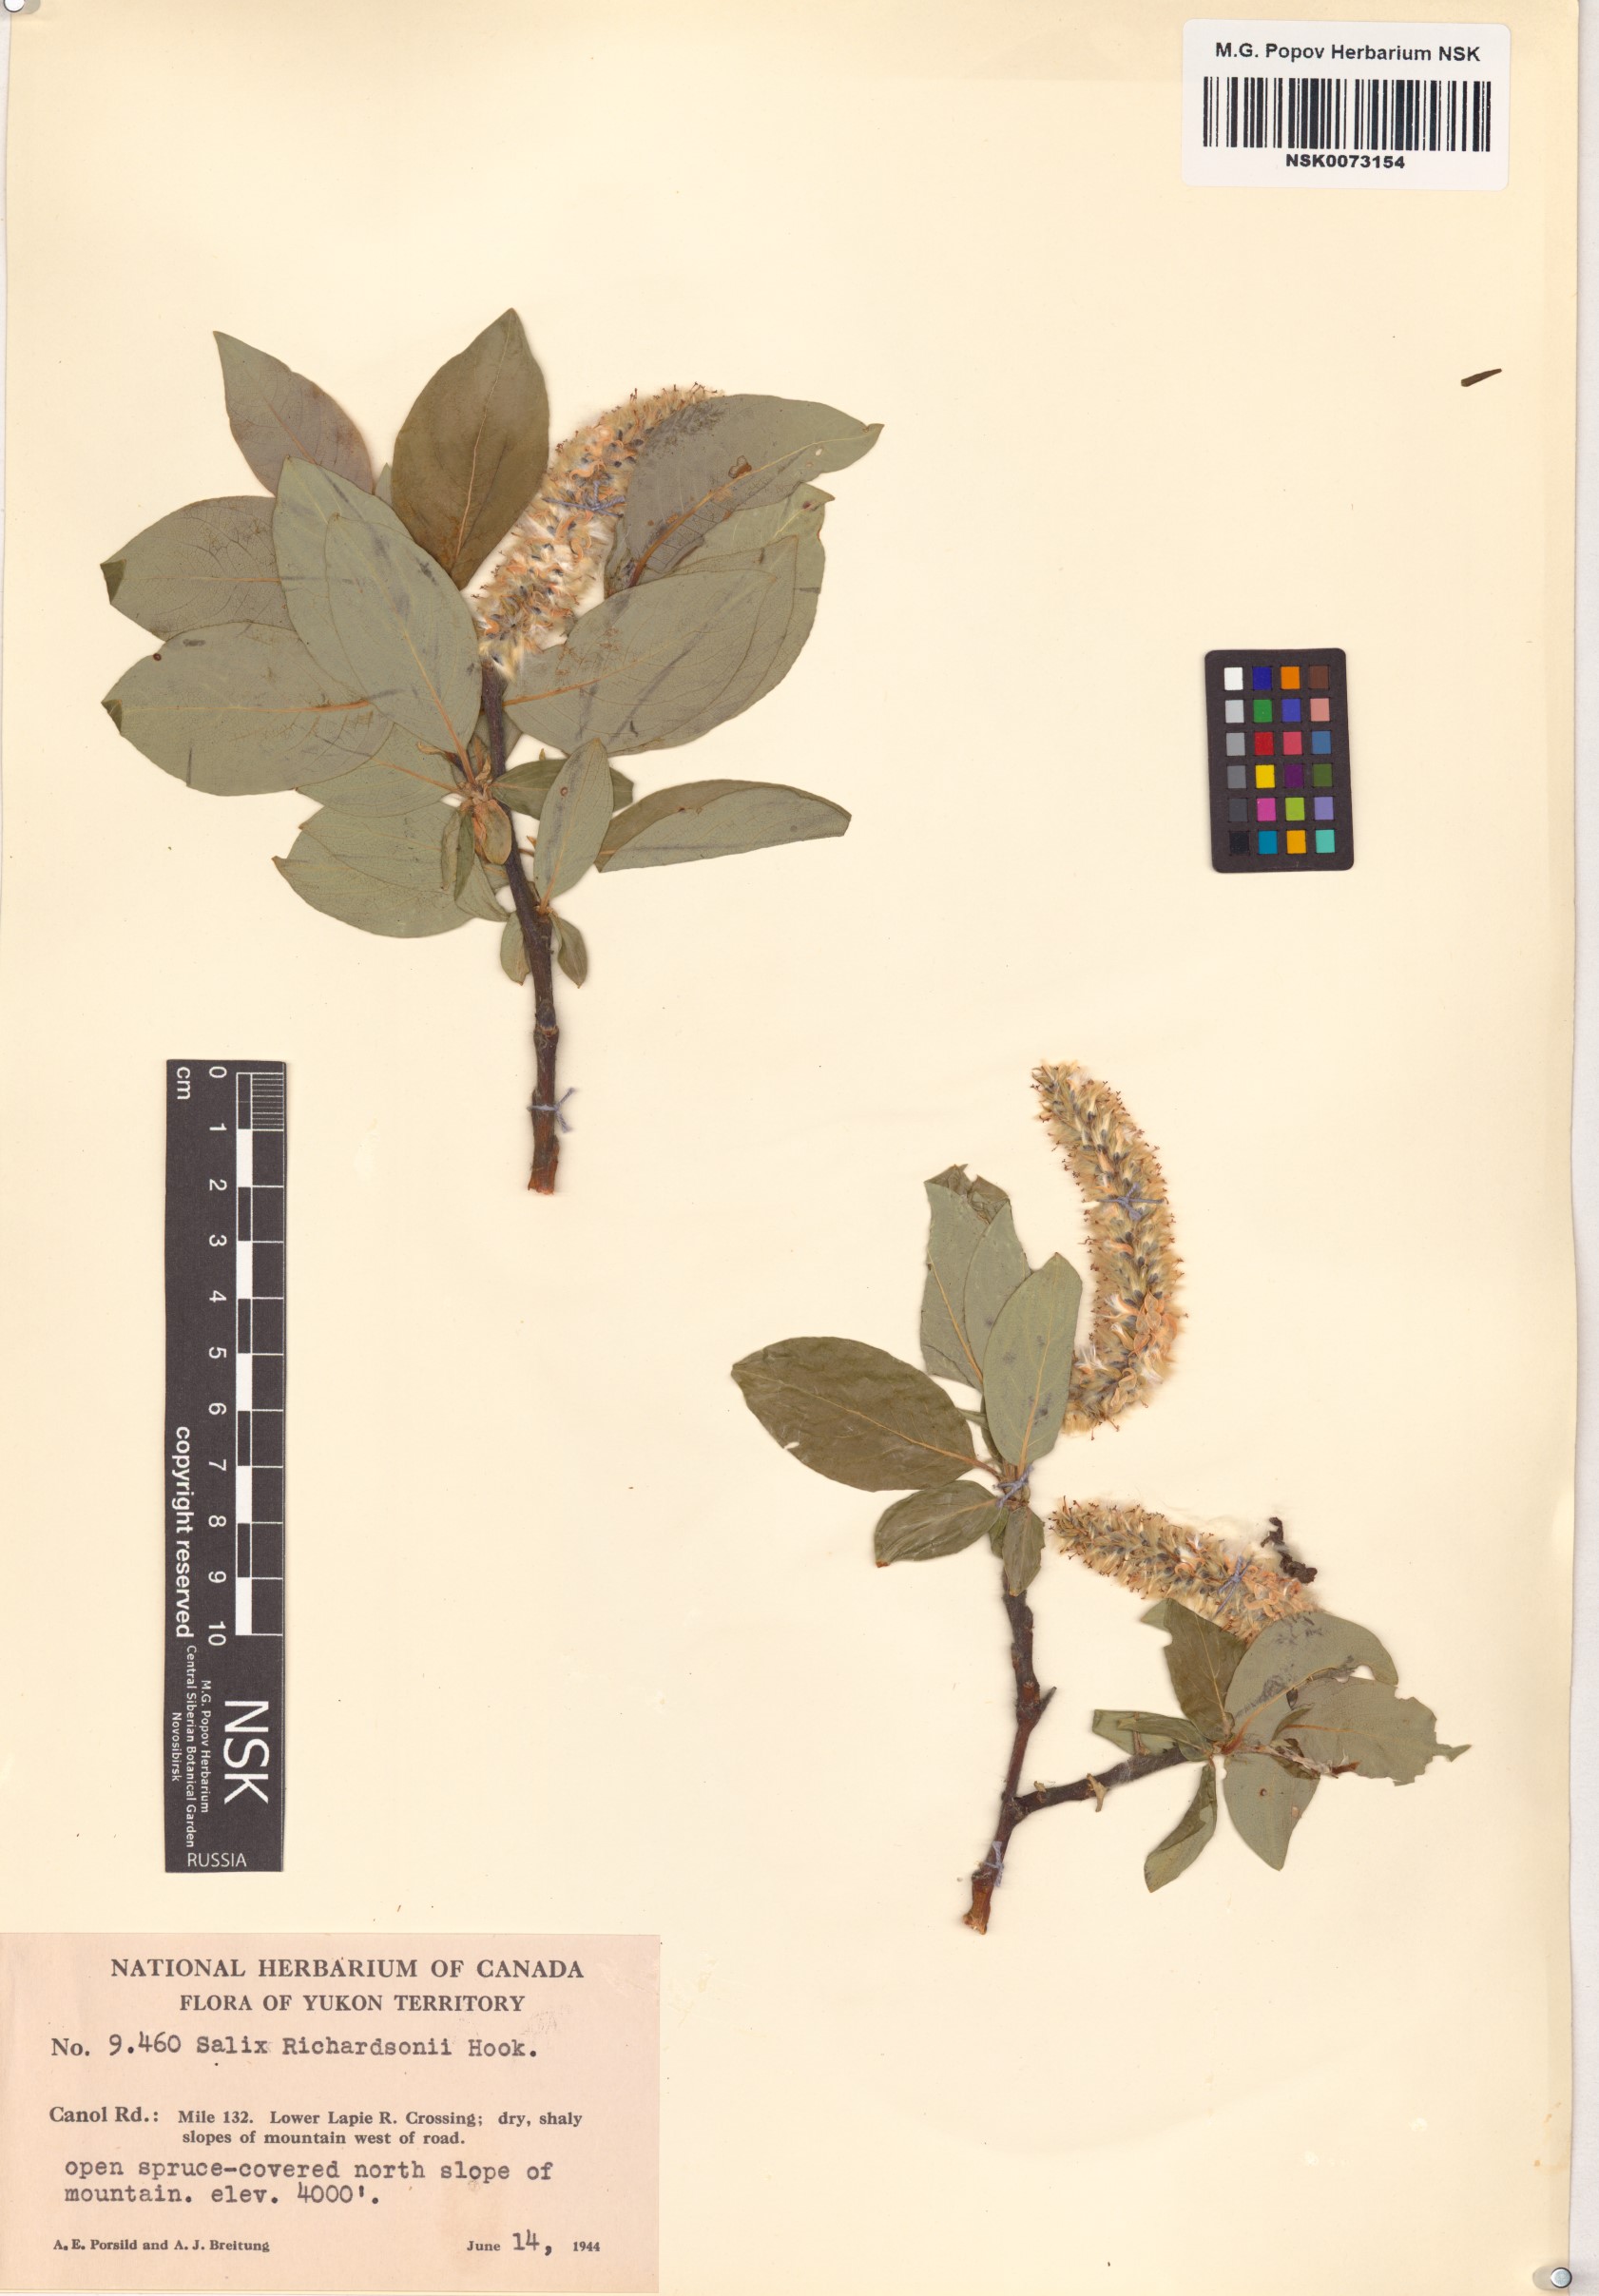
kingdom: Plantae
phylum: Tracheophyta
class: Magnoliopsida
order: Malpighiales
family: Salicaceae
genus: Salix
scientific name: Salix richardsonii
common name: Richardson’s willow
